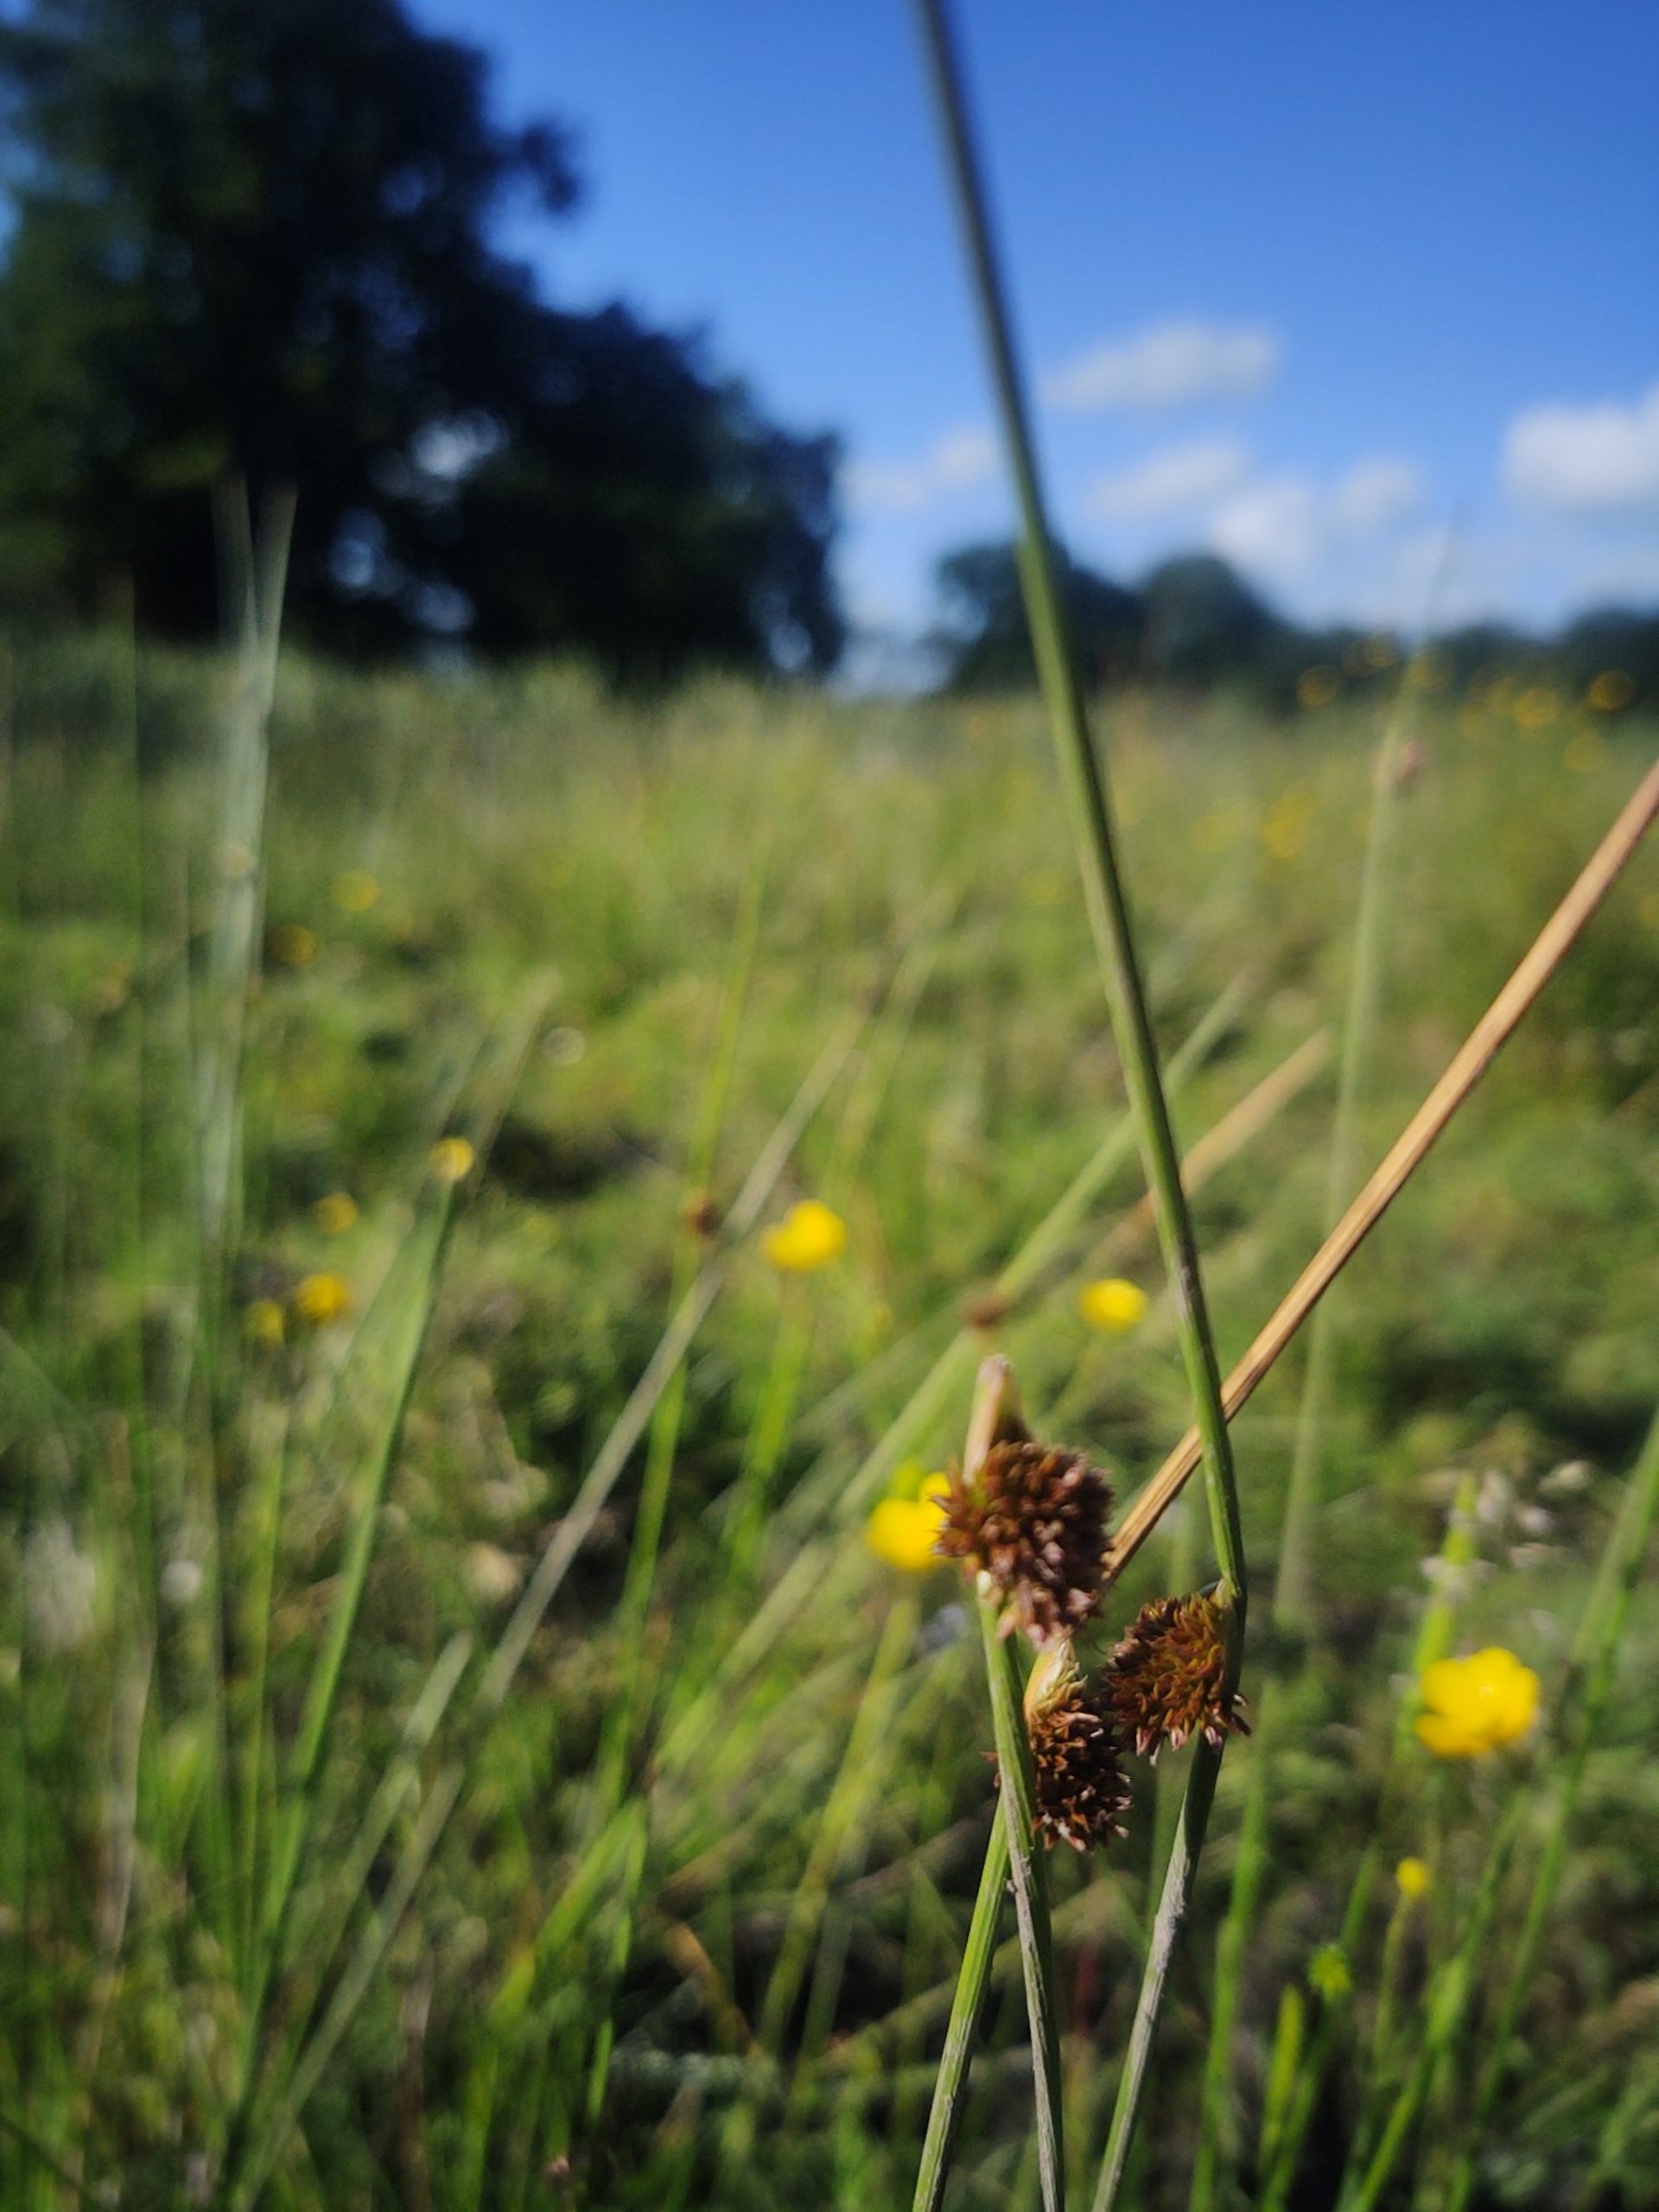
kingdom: Plantae
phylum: Tracheophyta
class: Liliopsida
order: Poales
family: Juncaceae
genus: Juncus
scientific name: Juncus conglomeratus
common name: Knop-siv
